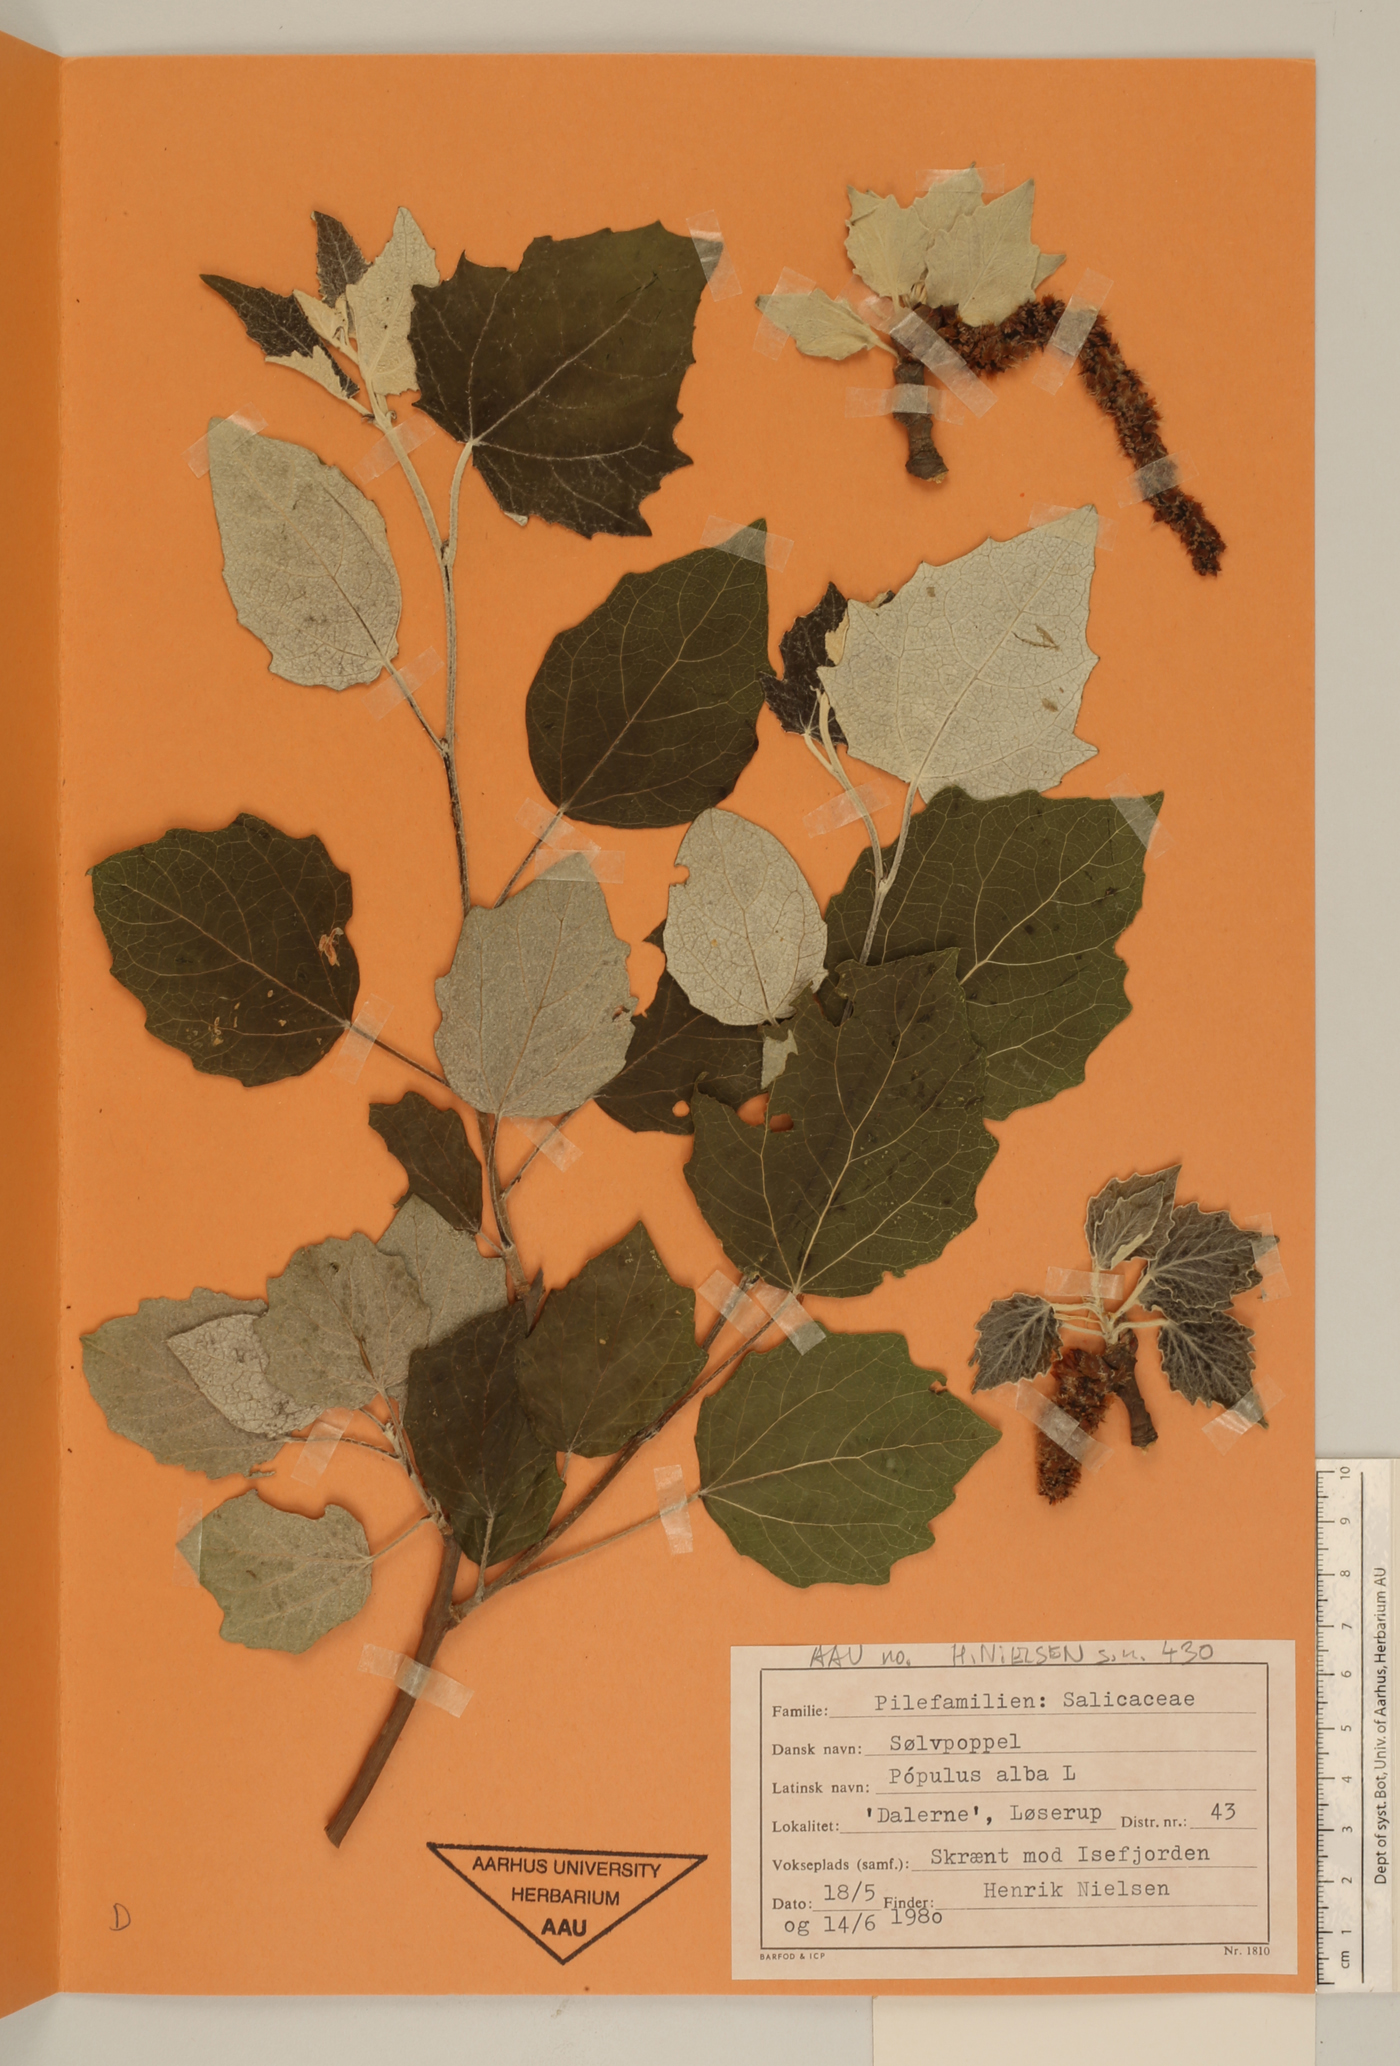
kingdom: Plantae
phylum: Tracheophyta
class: Magnoliopsida
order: Malpighiales
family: Salicaceae
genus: Populus
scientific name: Populus alba
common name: White poplar
